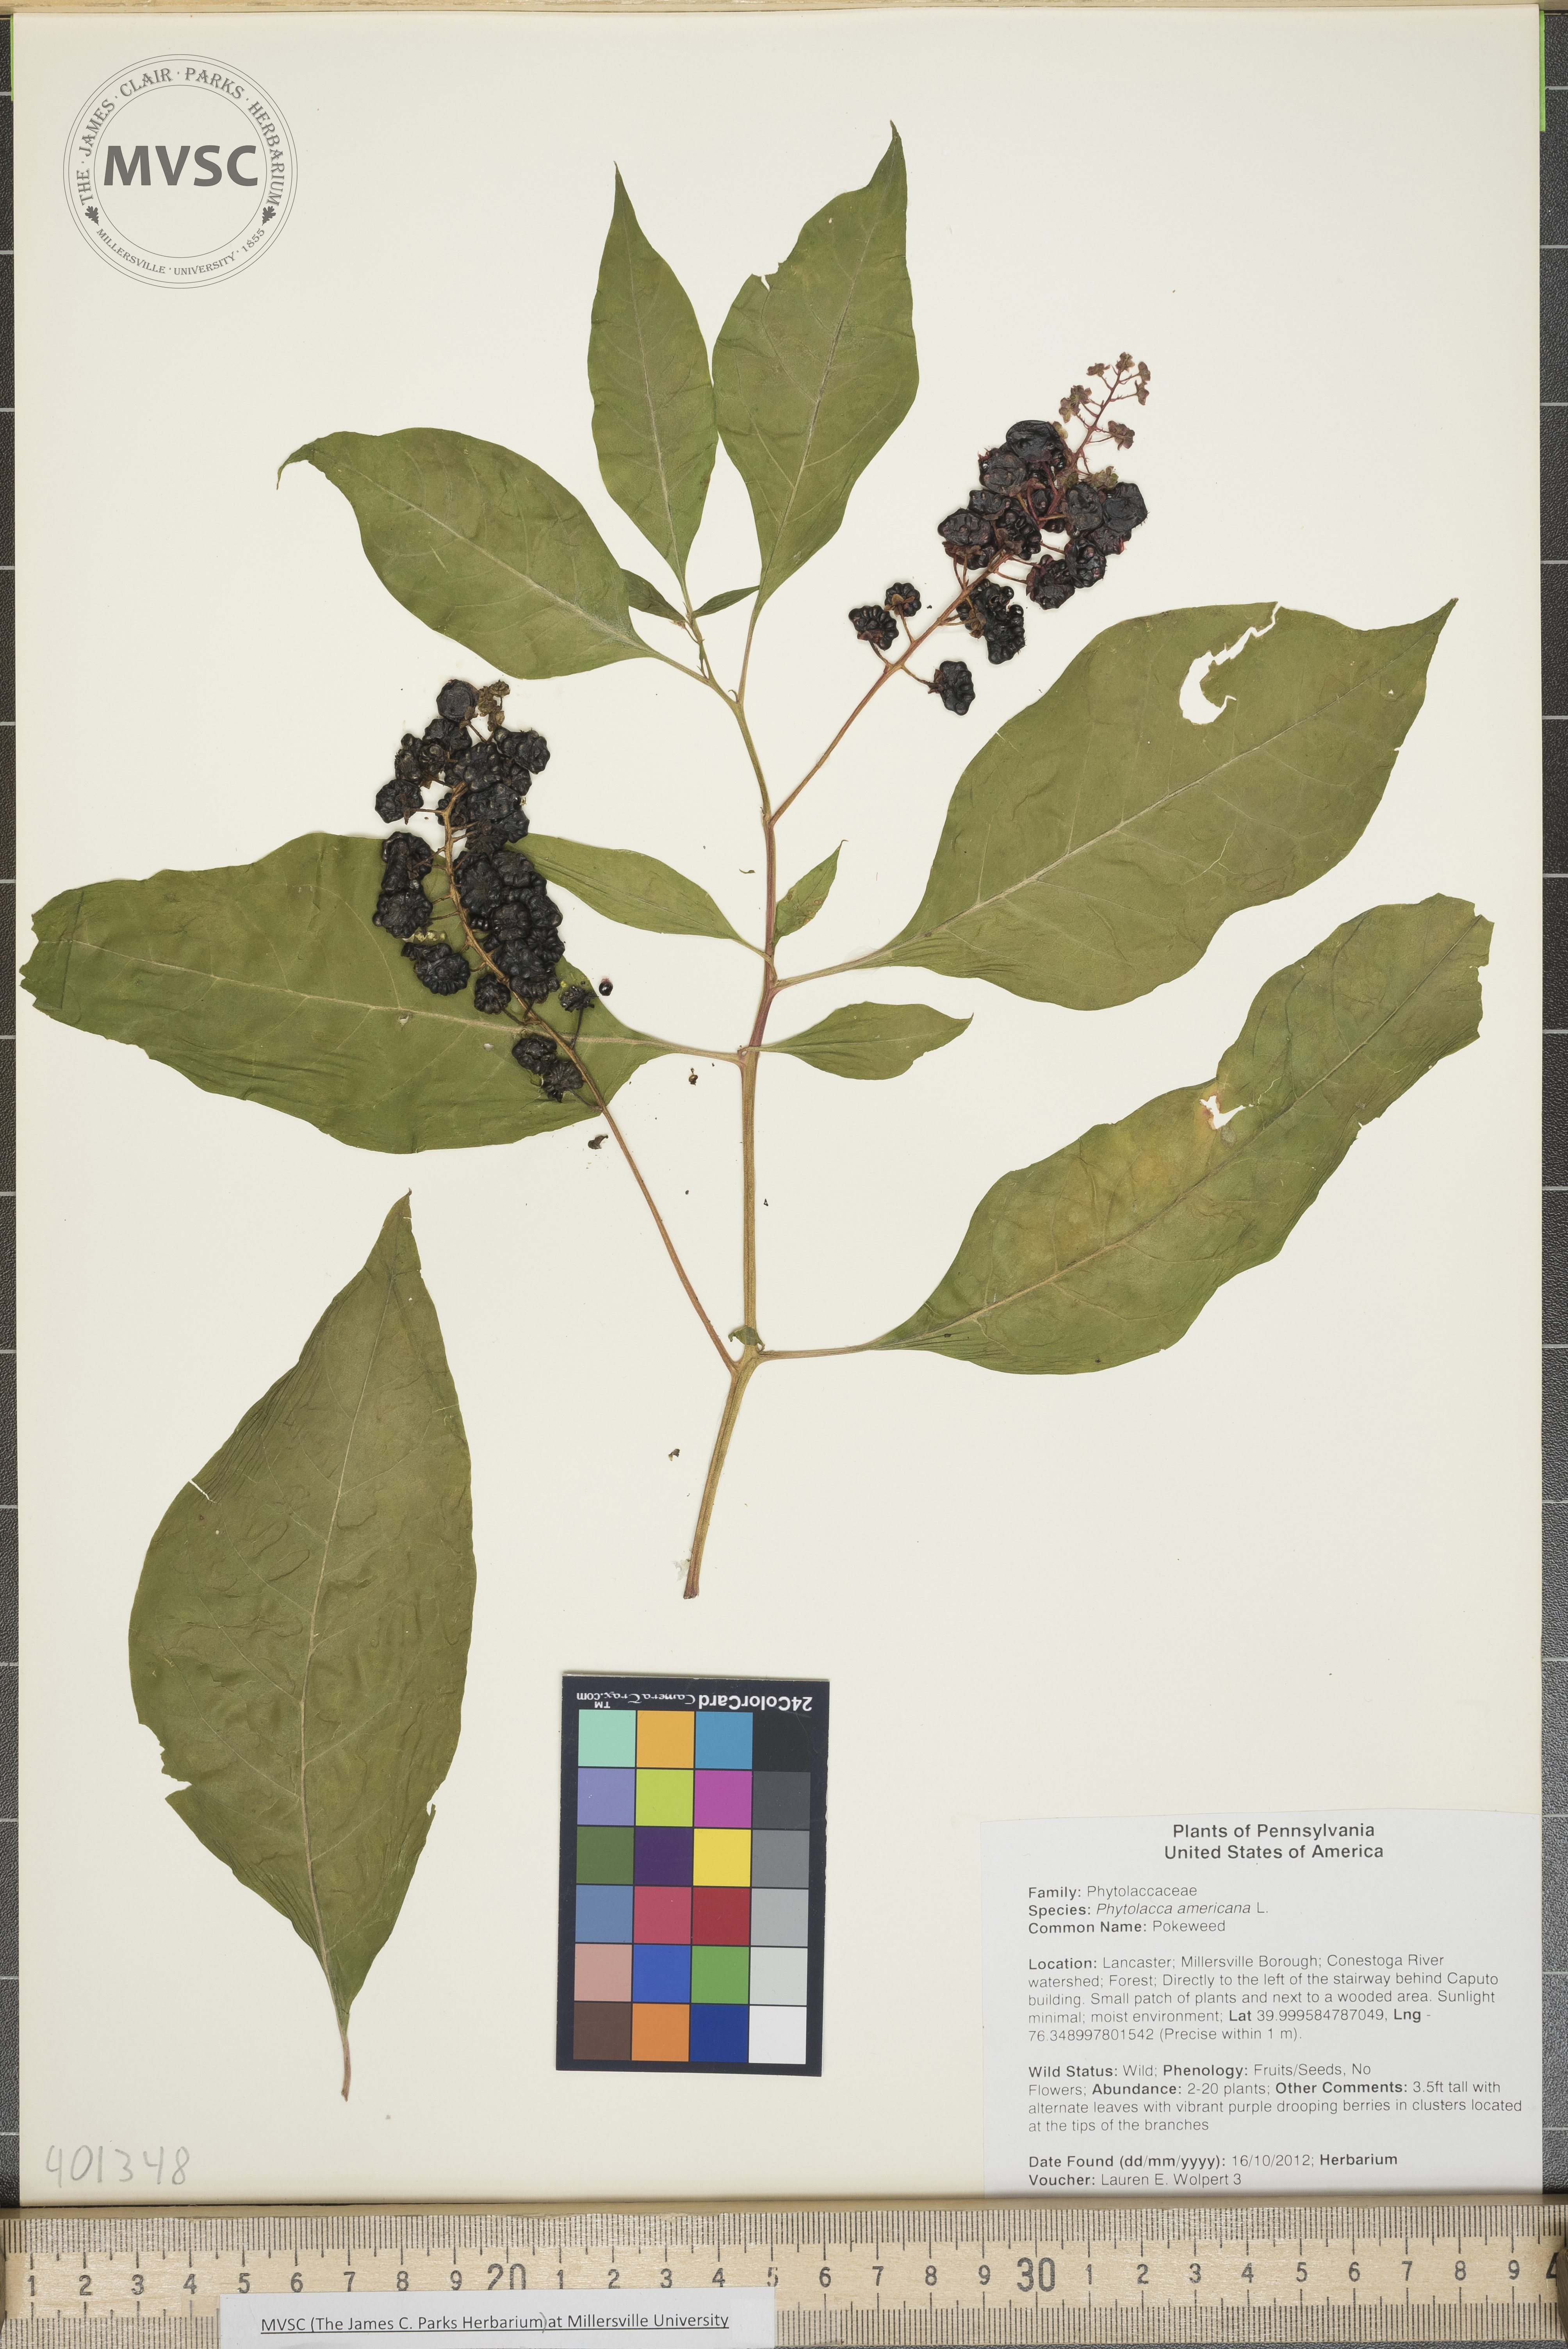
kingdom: Plantae
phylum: Tracheophyta
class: Magnoliopsida
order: Caryophyllales
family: Phytolaccaceae
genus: Phytolacca
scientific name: Phytolacca americana
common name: Pokeweed
